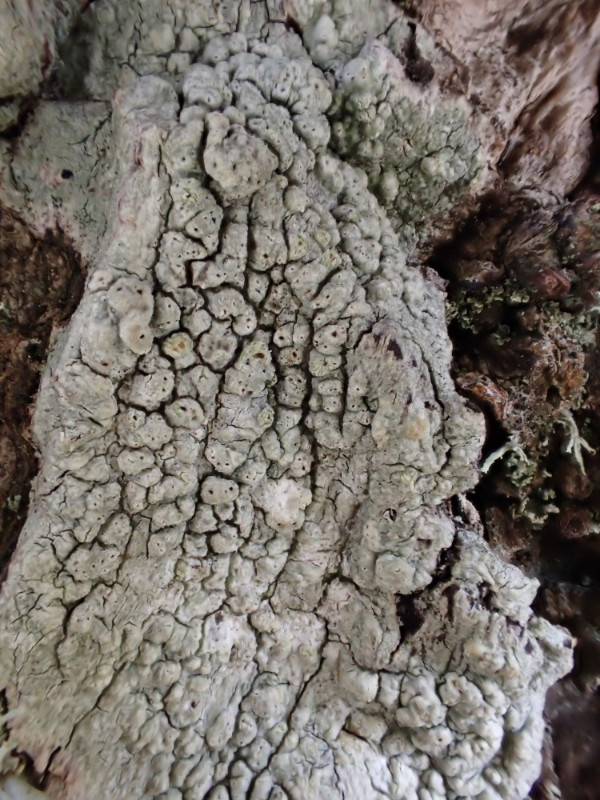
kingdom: Fungi
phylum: Ascomycota
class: Lecanoromycetes
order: Pertusariales
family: Pertusariaceae
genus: Pertusaria
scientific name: Pertusaria pertusa
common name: almindelig prikvortelav
